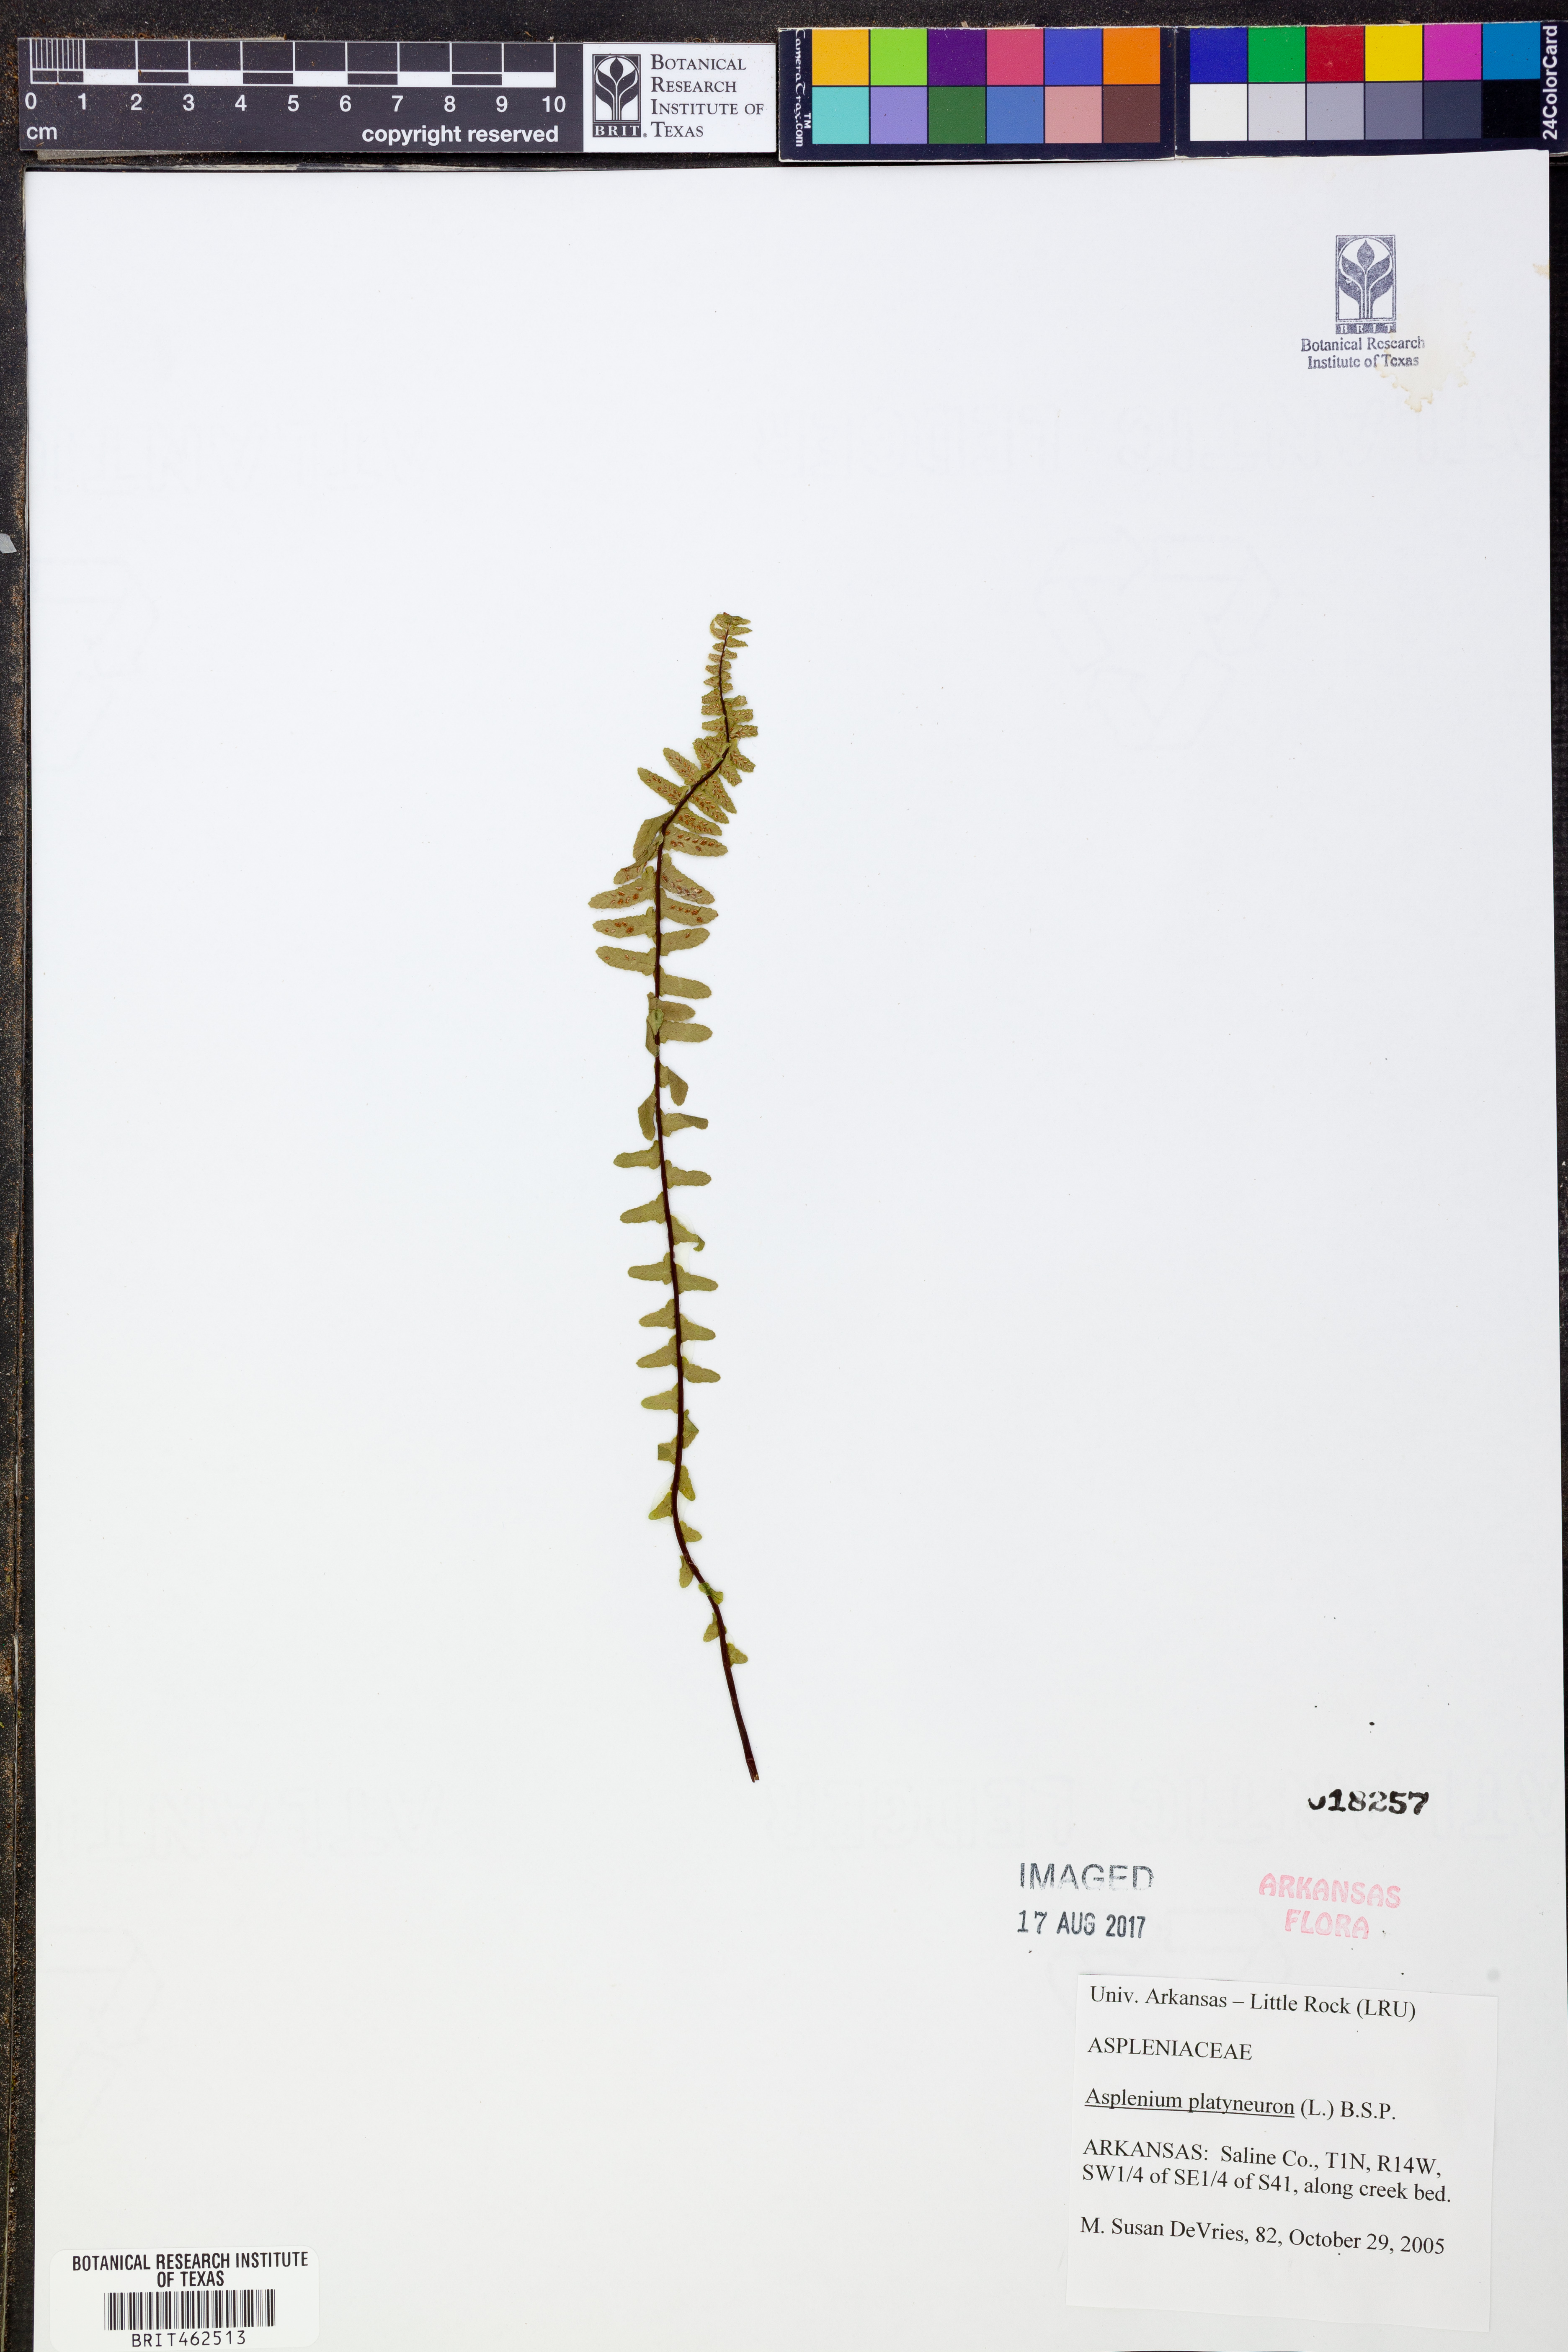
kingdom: Plantae
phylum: Tracheophyta
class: Polypodiopsida
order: Polypodiales
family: Aspleniaceae
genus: Asplenium
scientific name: Asplenium platyneuron
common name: Ebony spleenwort
